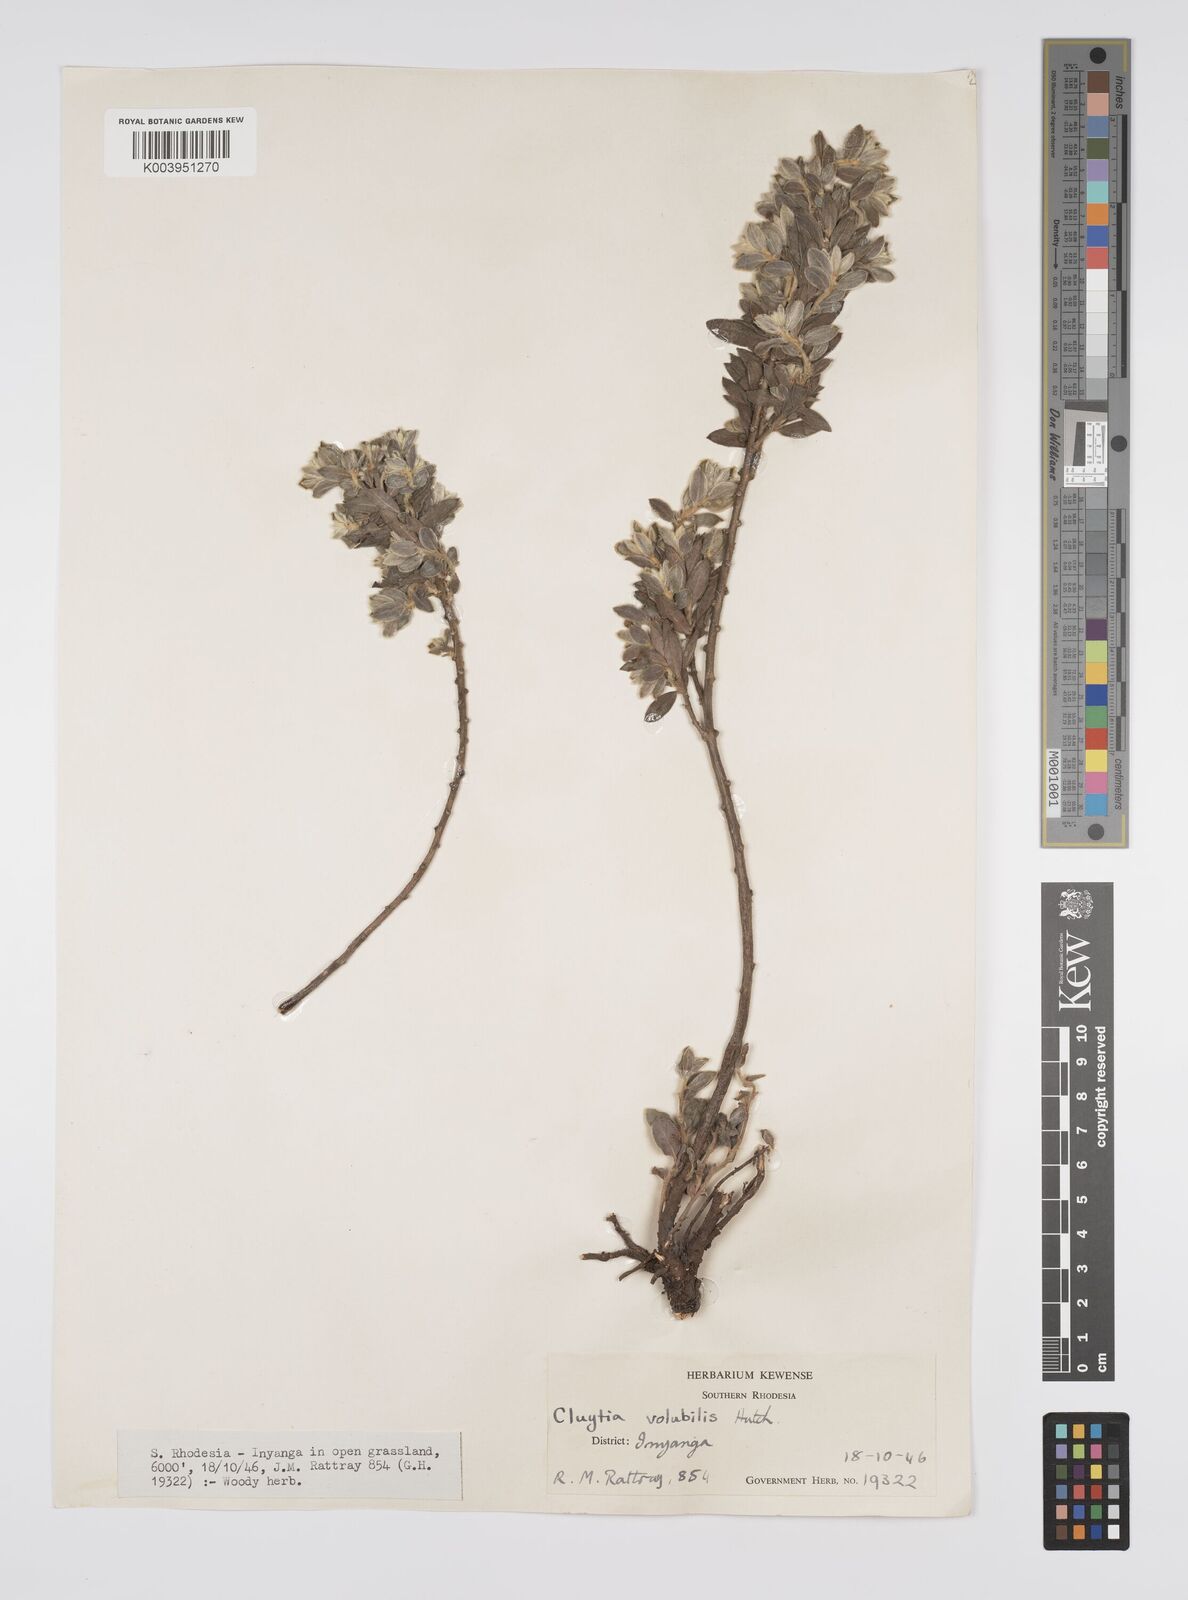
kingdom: Plantae
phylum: Tracheophyta
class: Magnoliopsida
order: Malpighiales
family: Peraceae
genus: Clutia
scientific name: Clutia
